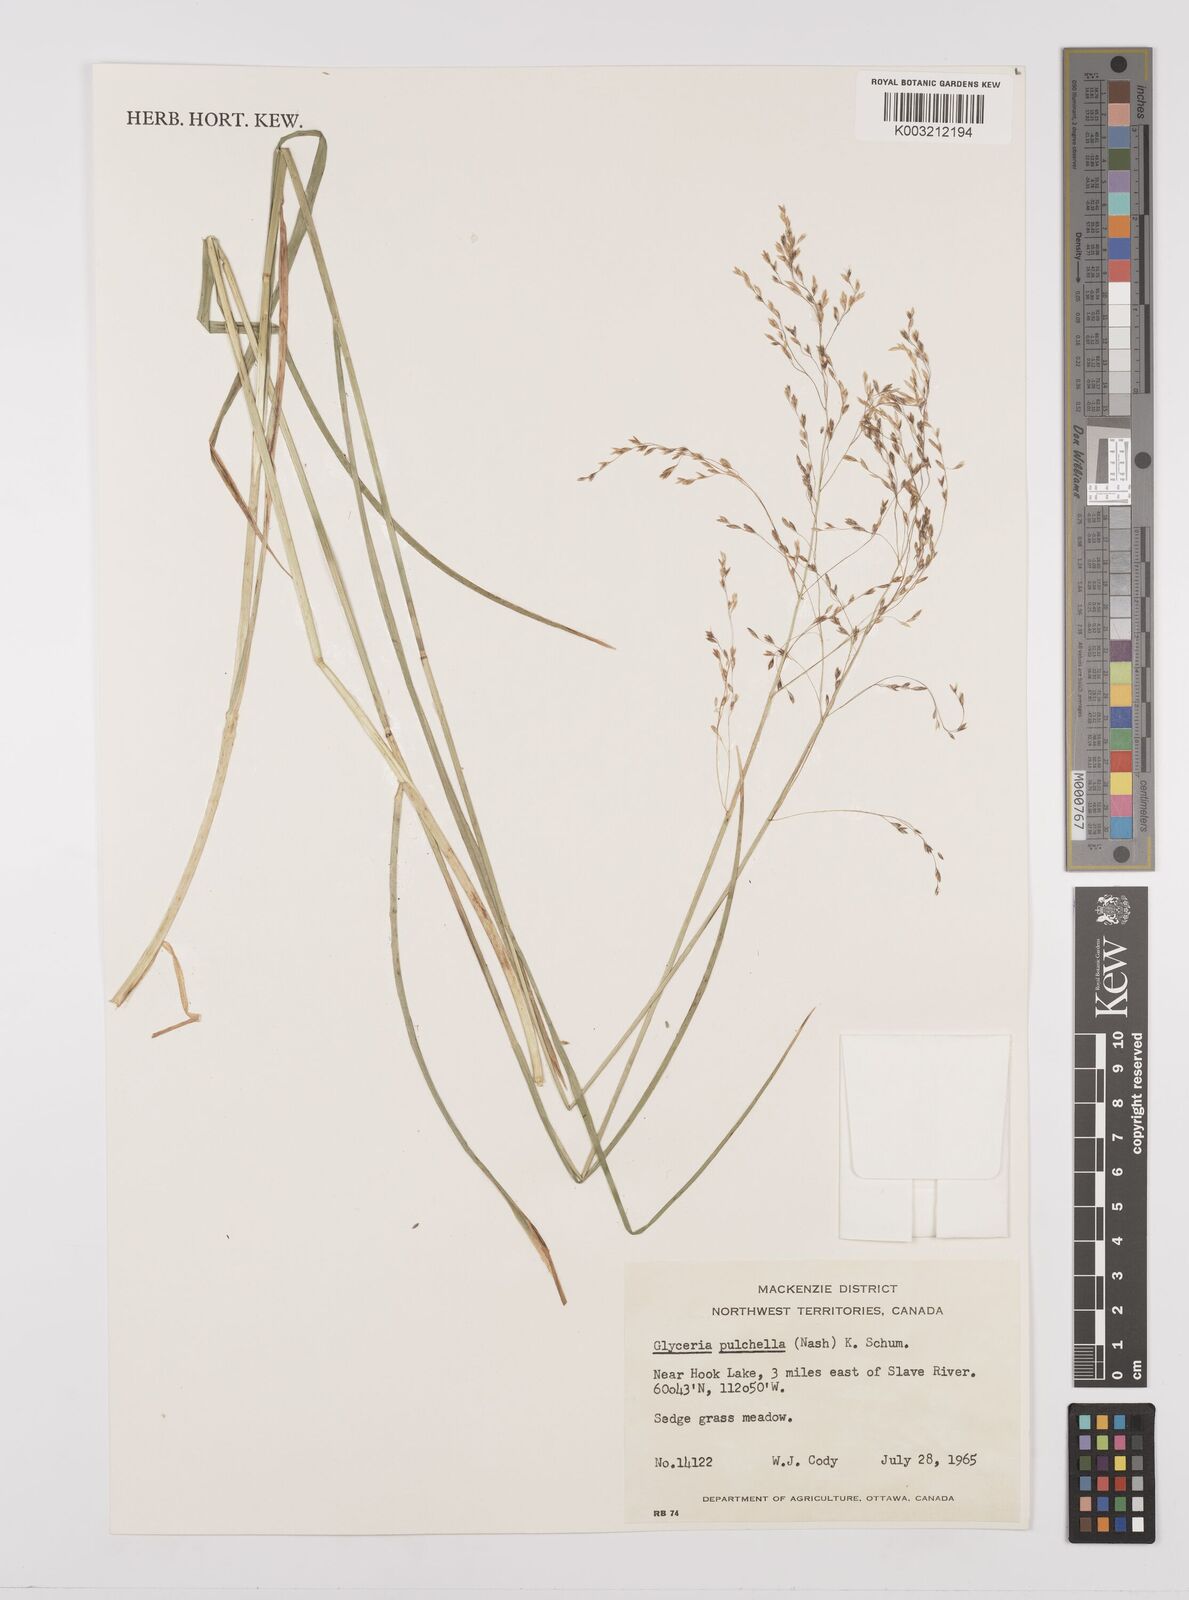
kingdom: Plantae
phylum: Tracheophyta
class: Liliopsida
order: Poales
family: Poaceae
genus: Glyceria
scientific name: Glyceria pulchella
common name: Mackenzie valley mannagrass
